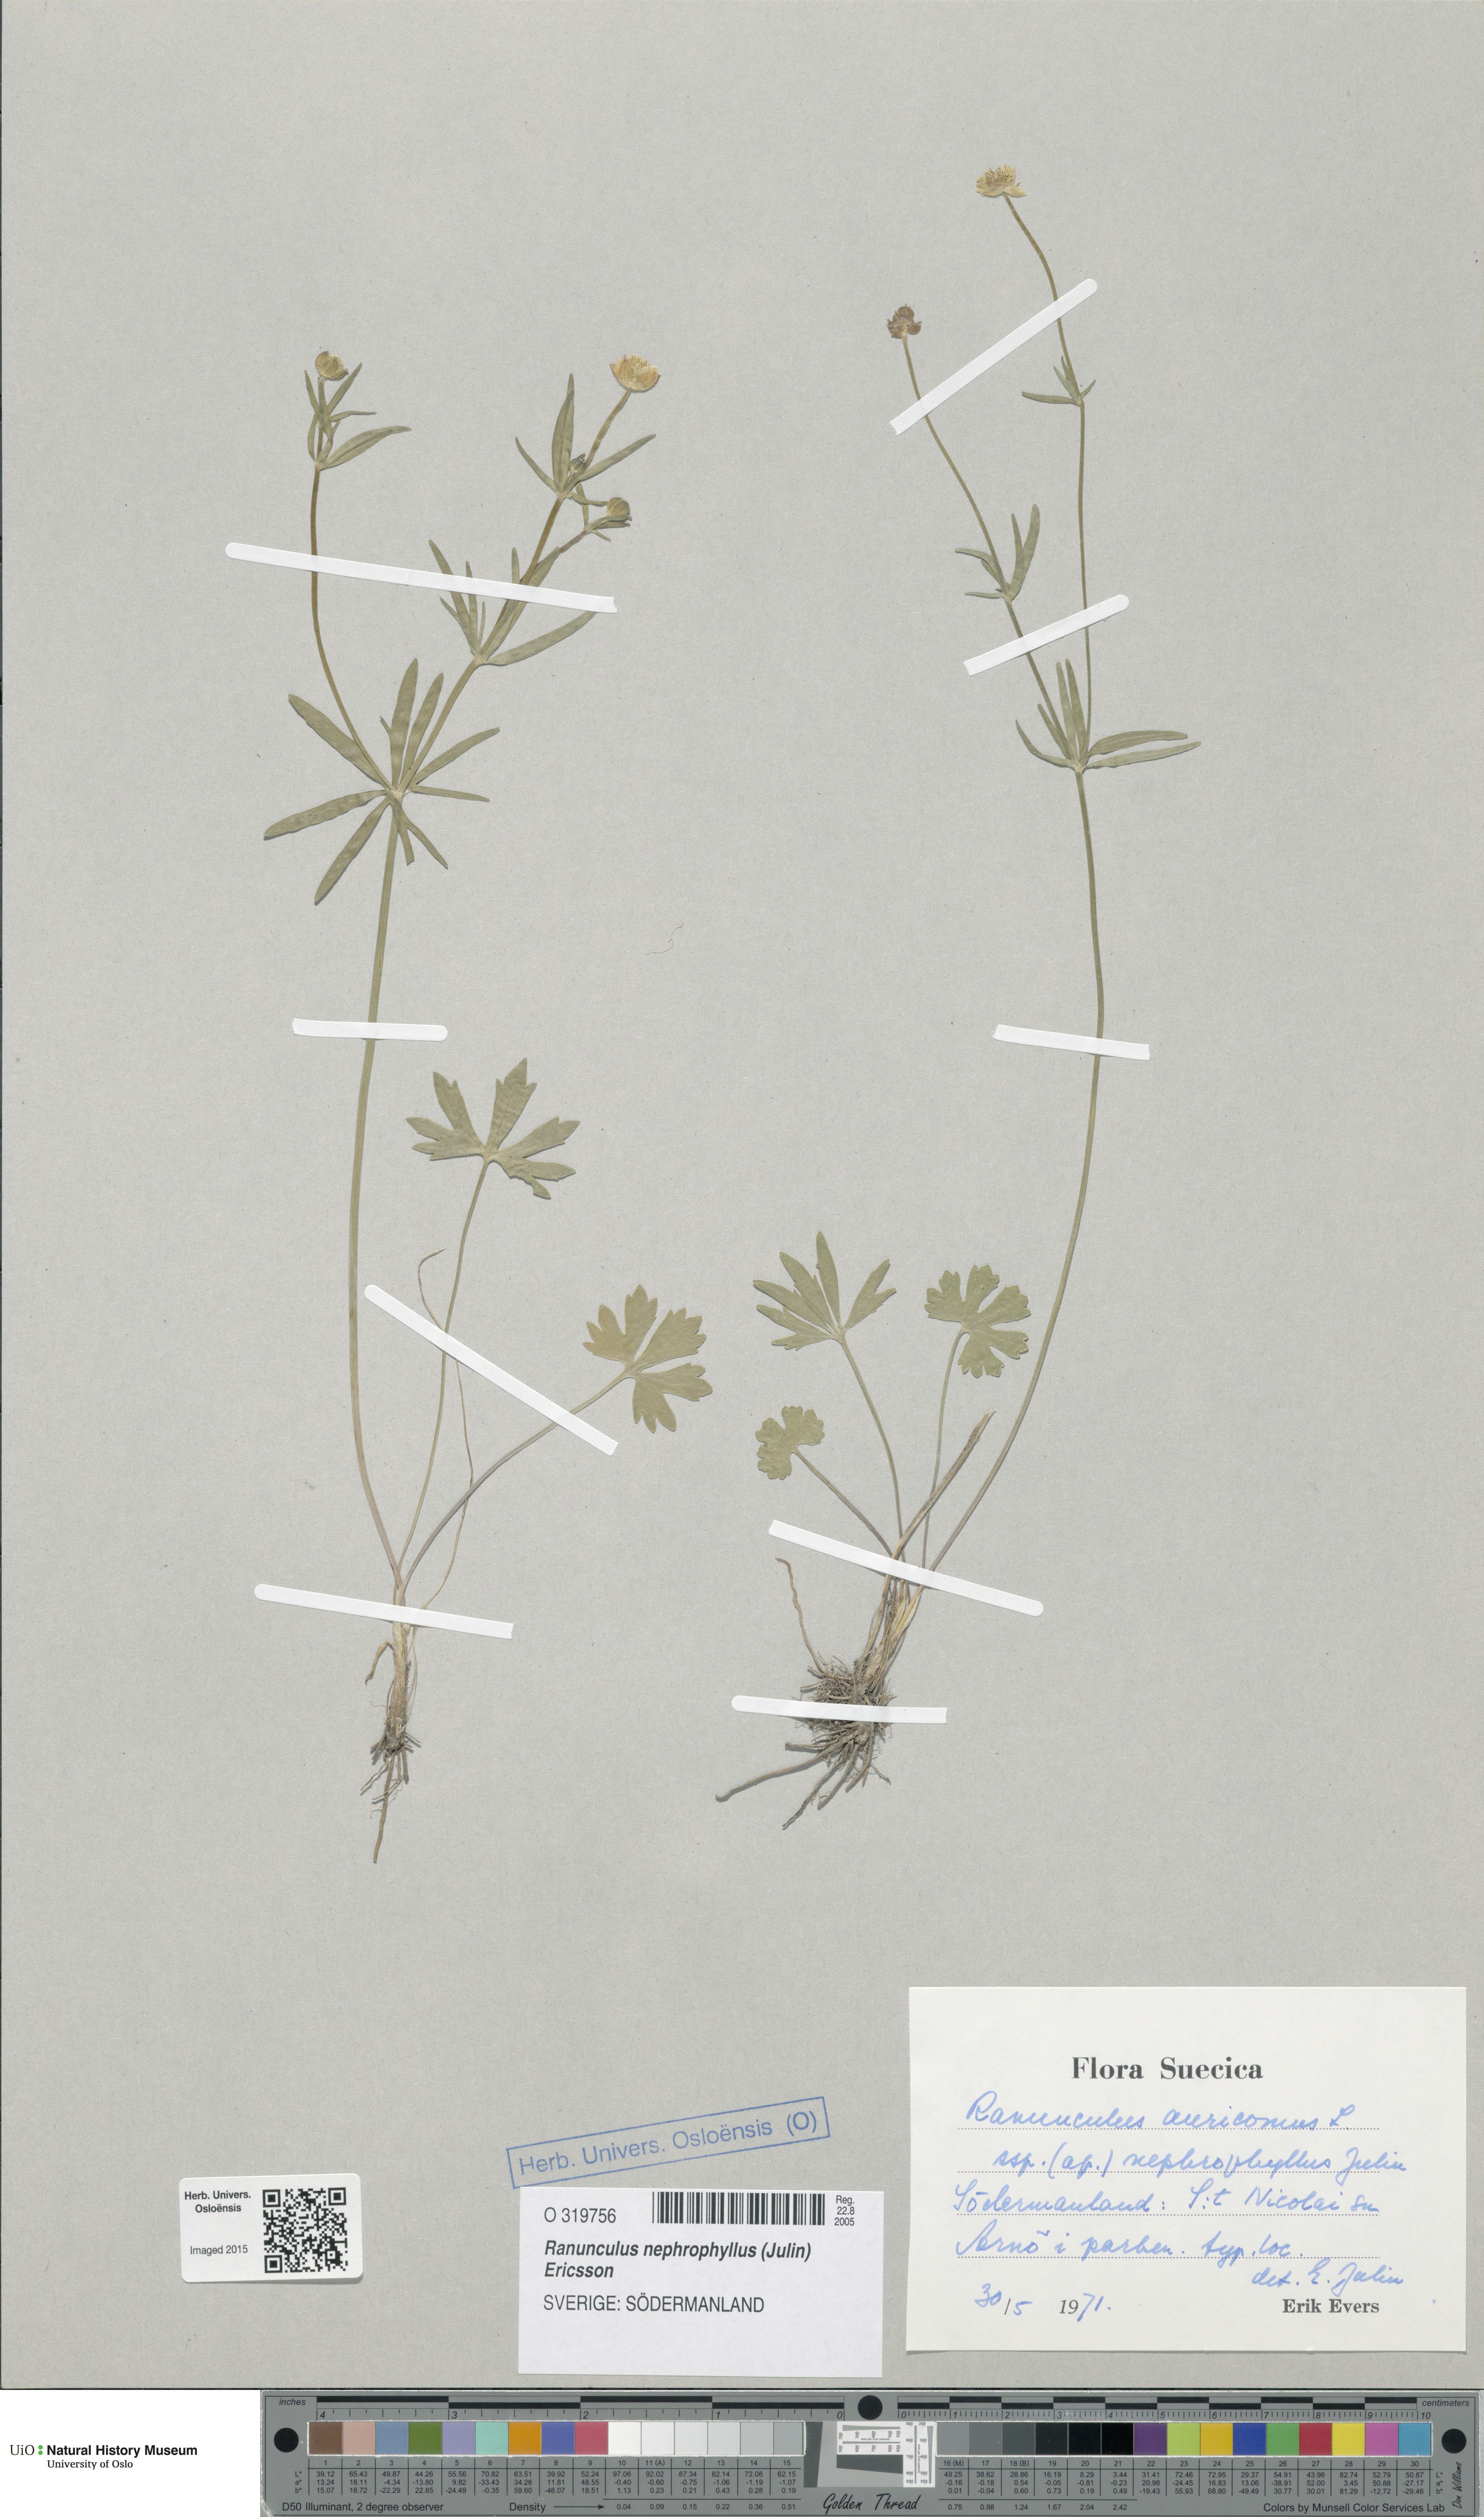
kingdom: Plantae
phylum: Tracheophyta
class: Magnoliopsida
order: Ranunculales
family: Ranunculaceae
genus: Ranunculus
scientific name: Ranunculus nephrophyllus
